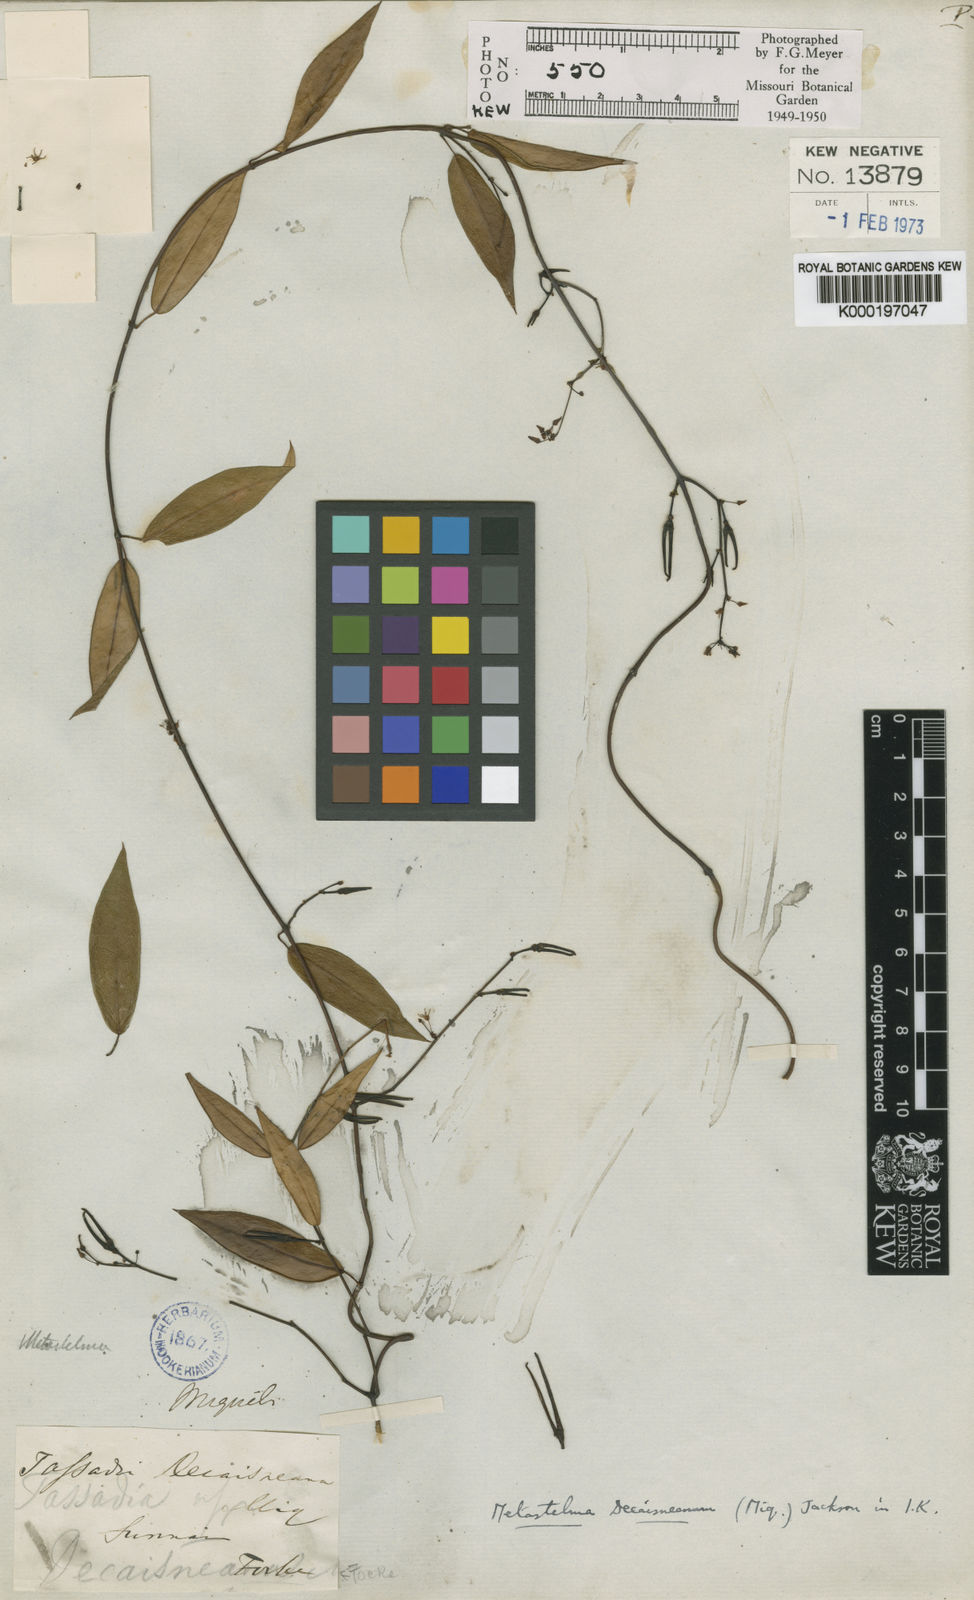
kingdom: Plantae
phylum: Tracheophyta
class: Magnoliopsida
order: Gentianales
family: Apocynaceae
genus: Tassadia
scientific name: Tassadia decaisneana
